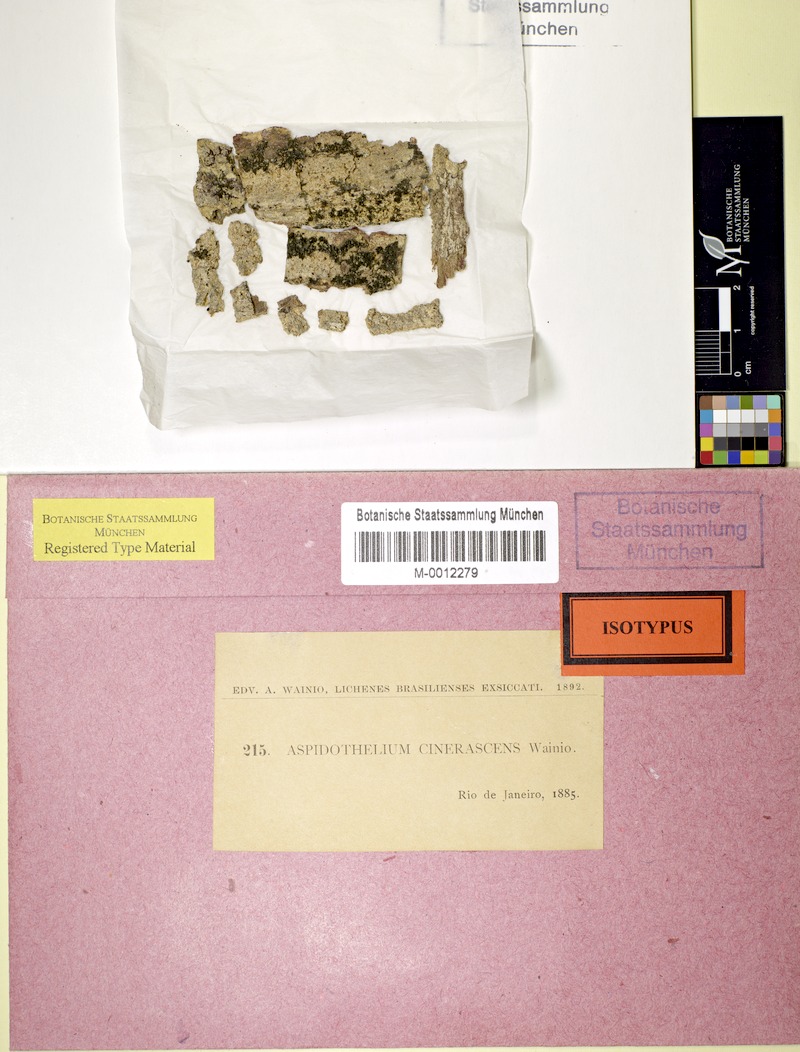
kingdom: Fungi
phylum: Ascomycota
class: Lecanoromycetes
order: Ostropales
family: Thelenellaceae
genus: Thelenella
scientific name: Thelenella cinerascens
